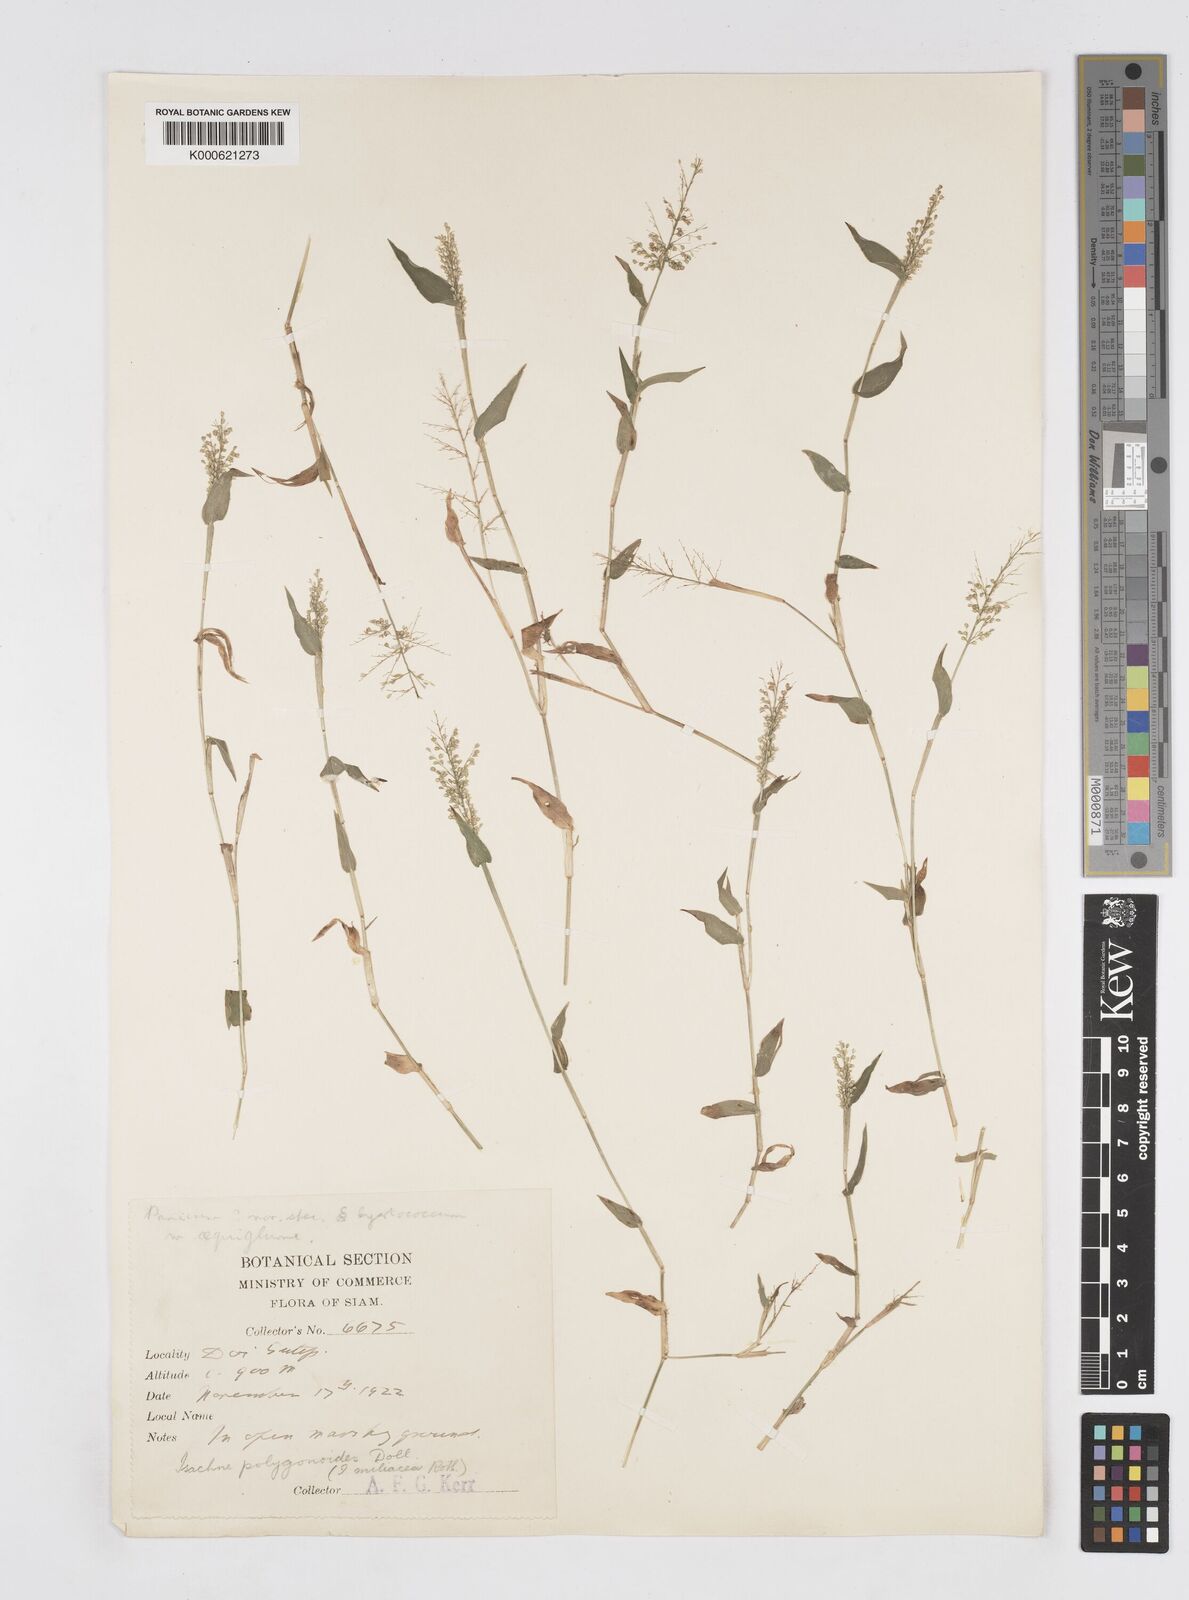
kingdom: Plantae
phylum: Tracheophyta
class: Liliopsida
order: Poales
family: Poaceae
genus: Isachne
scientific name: Isachne
